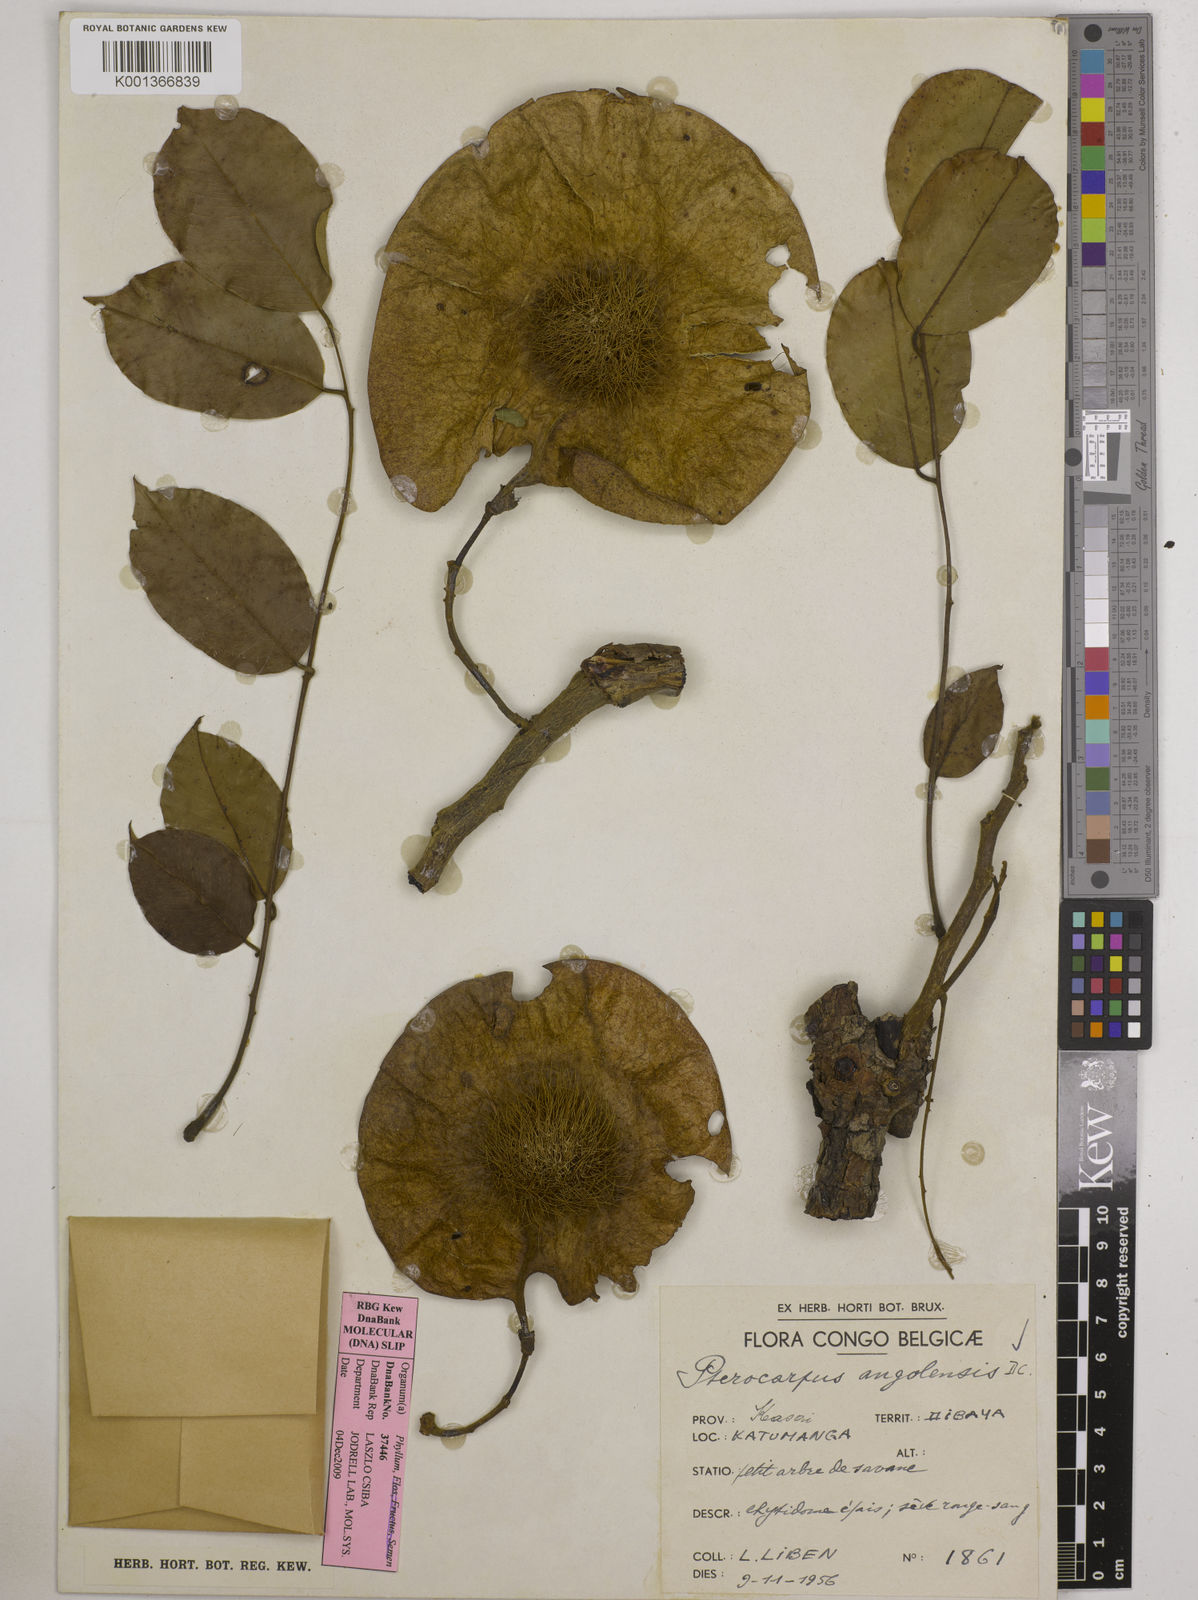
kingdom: Plantae
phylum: Tracheophyta
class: Magnoliopsida
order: Fabales
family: Fabaceae
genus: Pterocarpus
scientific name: Pterocarpus angolensis
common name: Bloodwood tree
